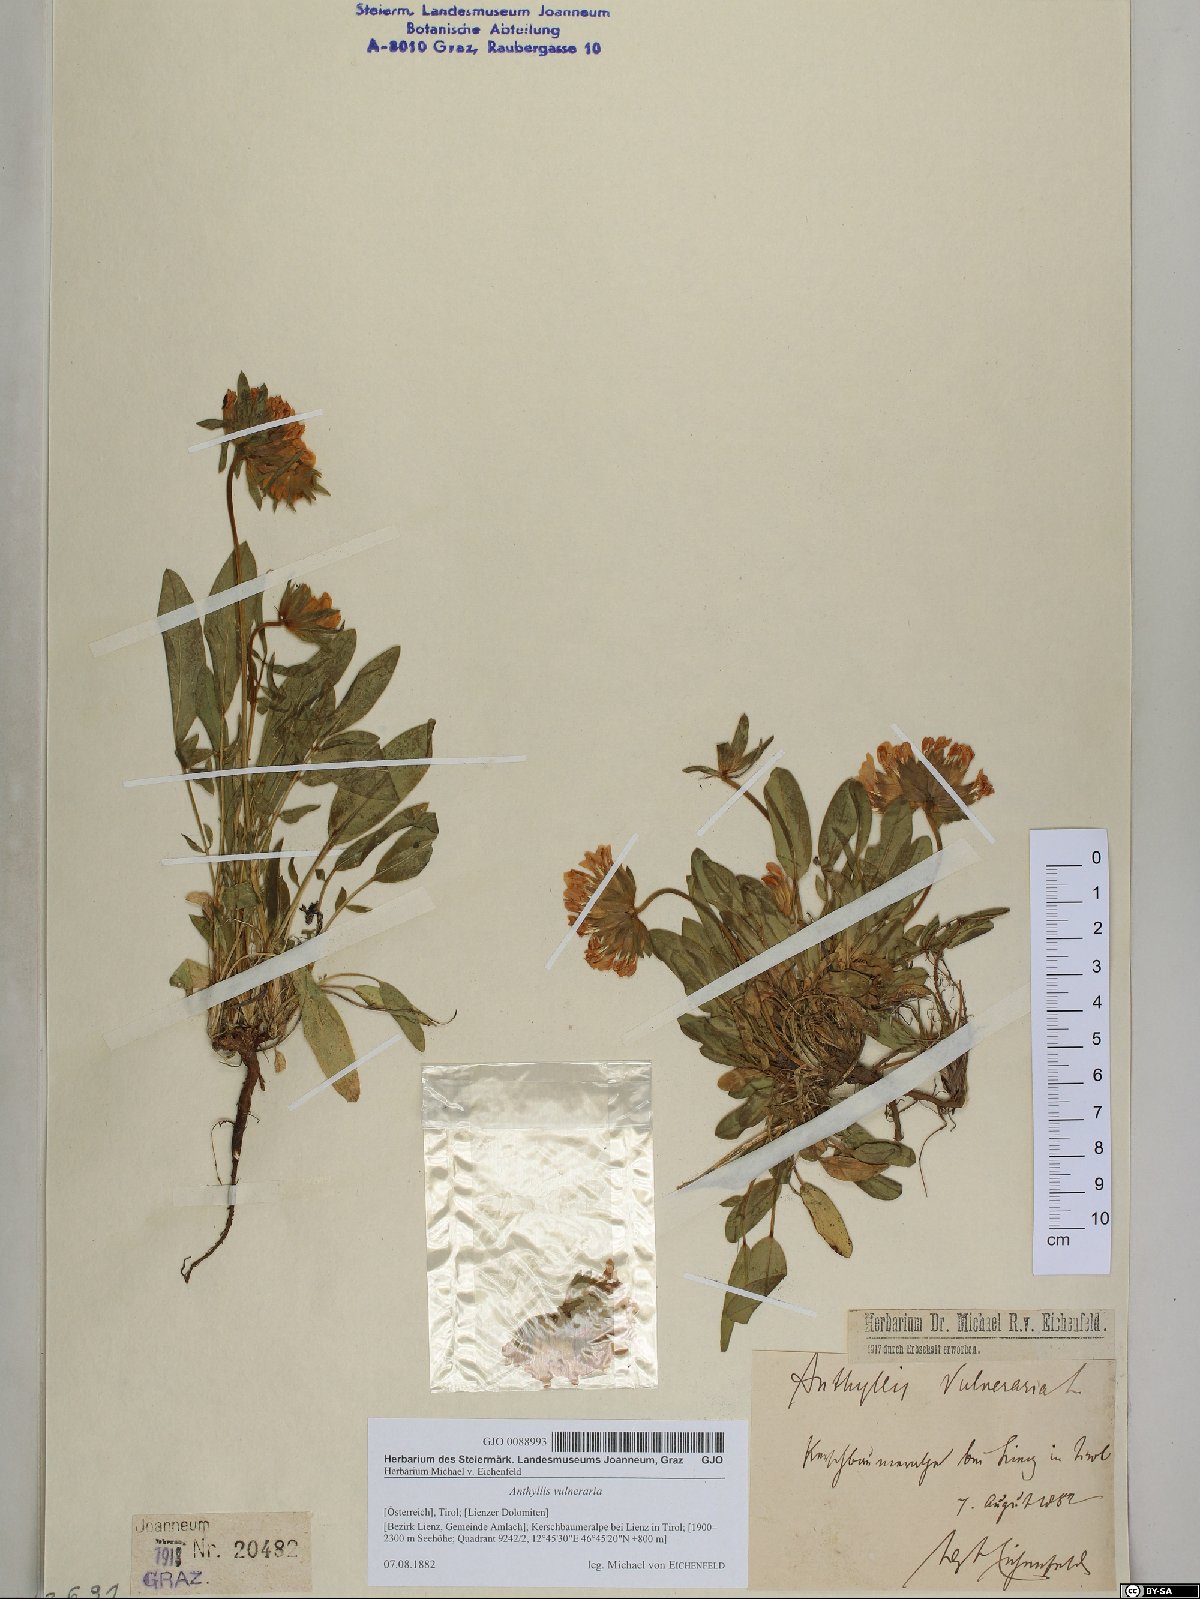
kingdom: Plantae
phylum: Tracheophyta
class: Magnoliopsida
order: Fabales
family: Fabaceae
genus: Anthyllis
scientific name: Anthyllis vulneraria
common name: Kidney vetch
